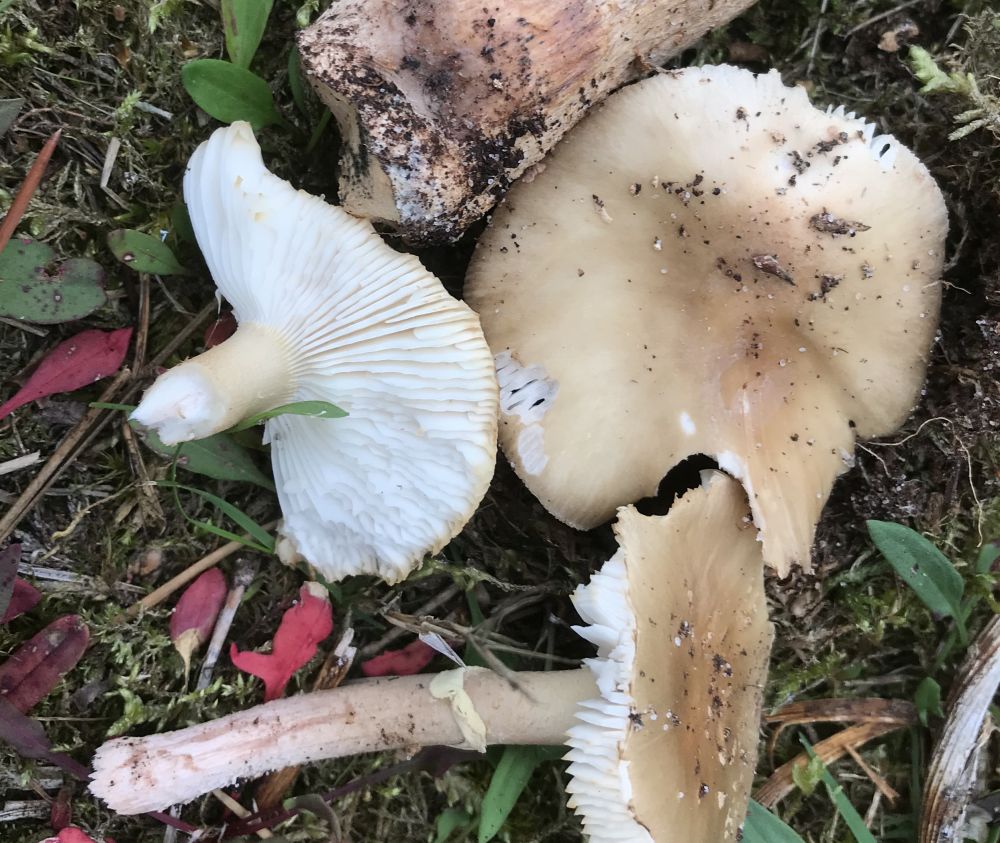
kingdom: Fungi
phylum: Basidiomycota
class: Agaricomycetes
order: Agaricales
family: Amanitaceae
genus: Amanita
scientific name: Amanita rubescens
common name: Blusher
